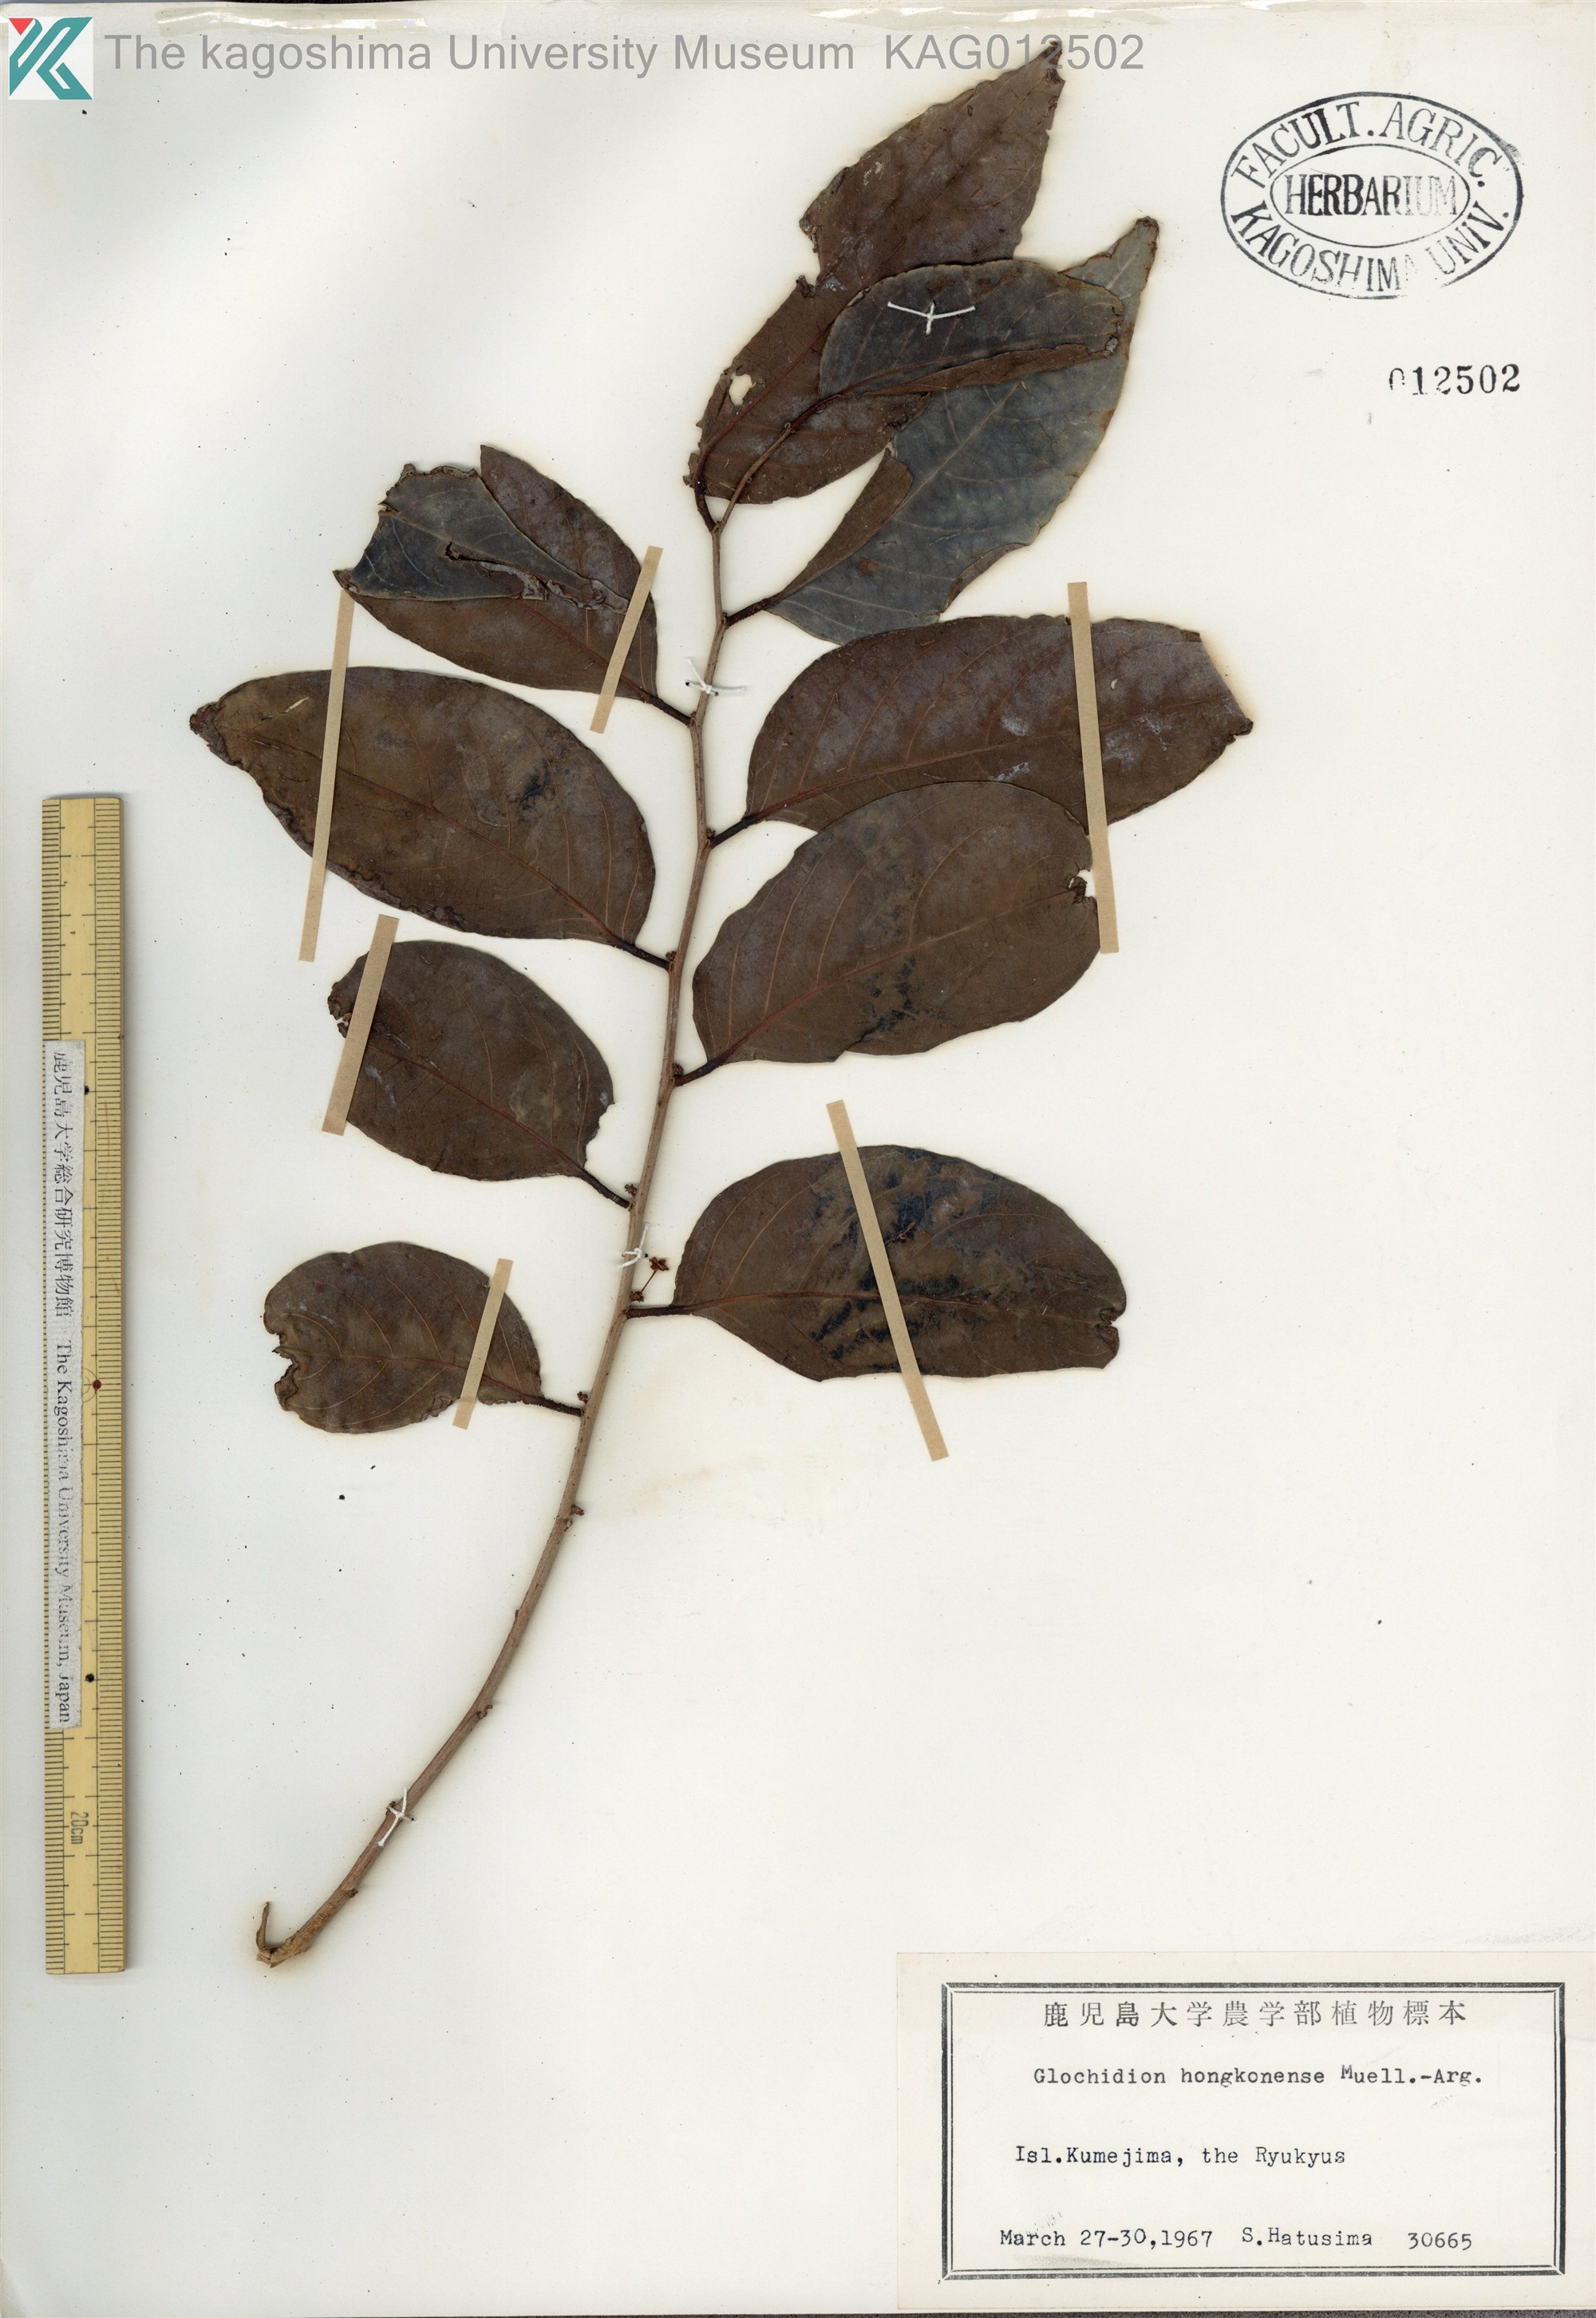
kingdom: Plantae
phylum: Tracheophyta
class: Magnoliopsida
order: Malpighiales
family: Phyllanthaceae
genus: Glochidion
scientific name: Glochidion zeylanicum
